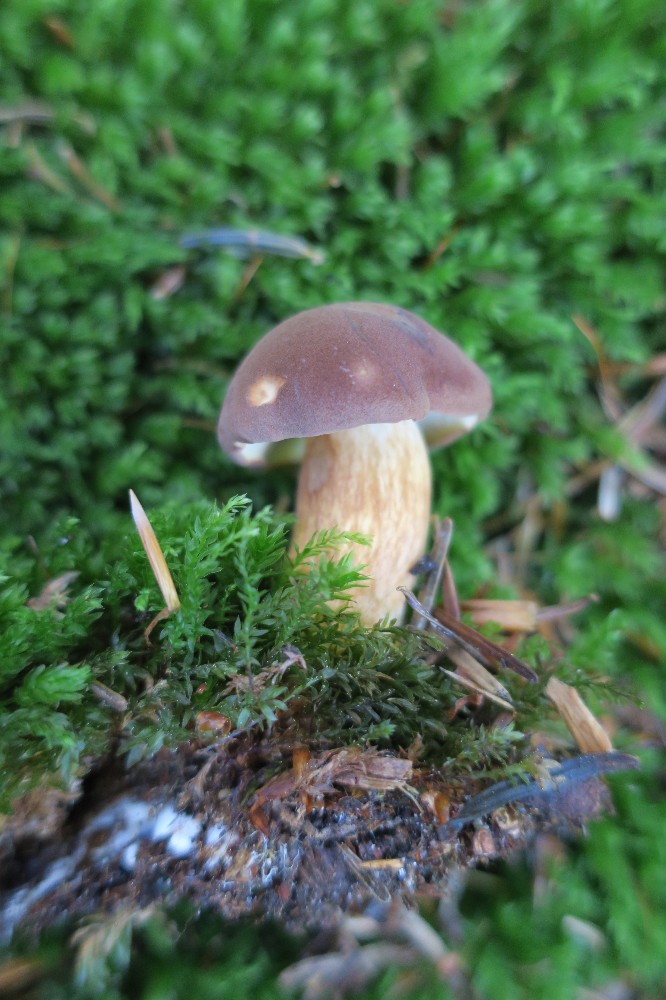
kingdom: Fungi
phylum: Basidiomycota
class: Agaricomycetes
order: Boletales
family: Boletaceae
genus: Imleria
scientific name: Imleria badia
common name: brunstokket rørhat
